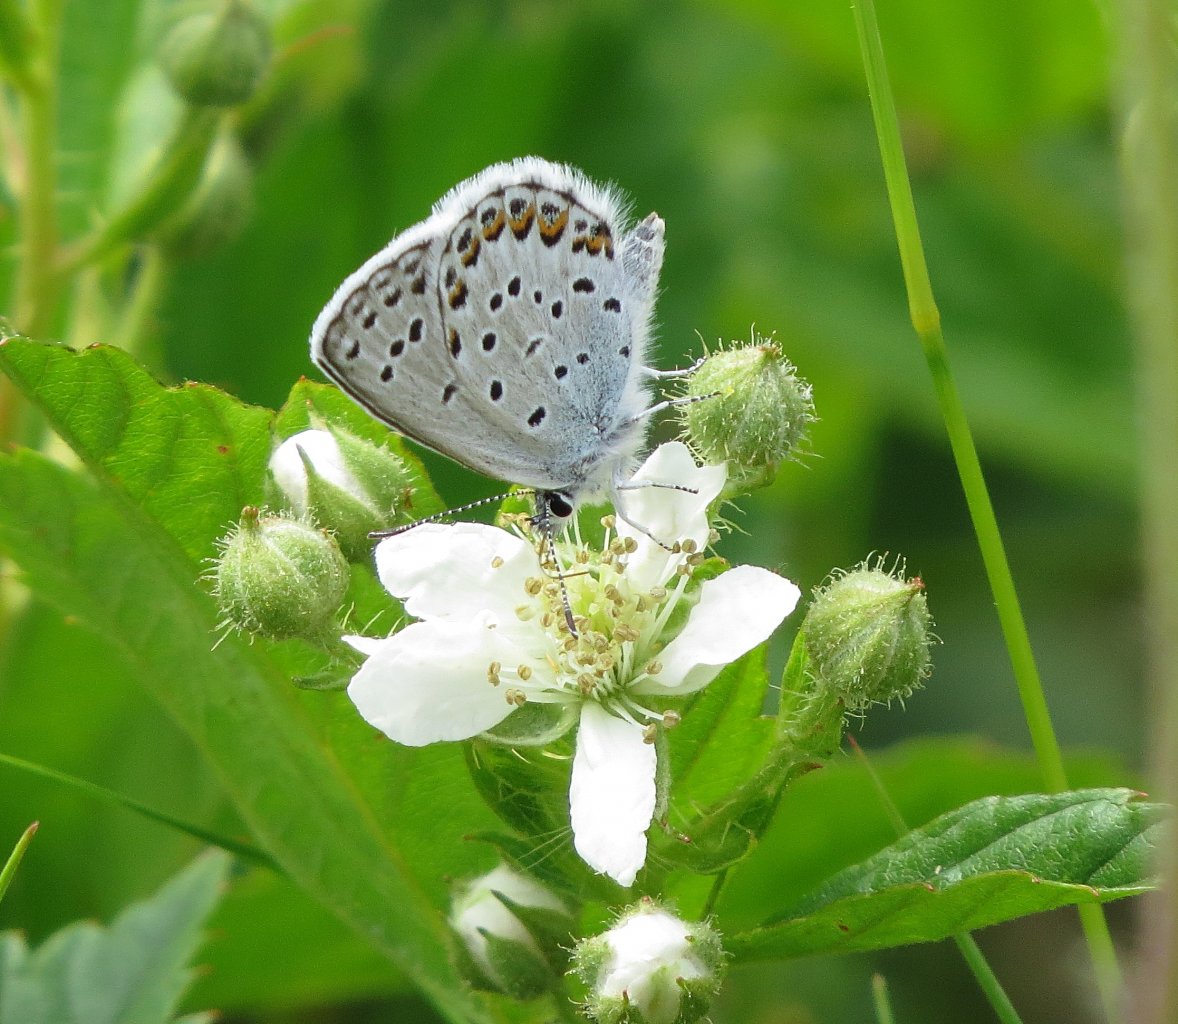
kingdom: Animalia
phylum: Arthropoda
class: Insecta
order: Lepidoptera
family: Lycaenidae
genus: Lycaeides
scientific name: Lycaeides idas
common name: Northern Blue
